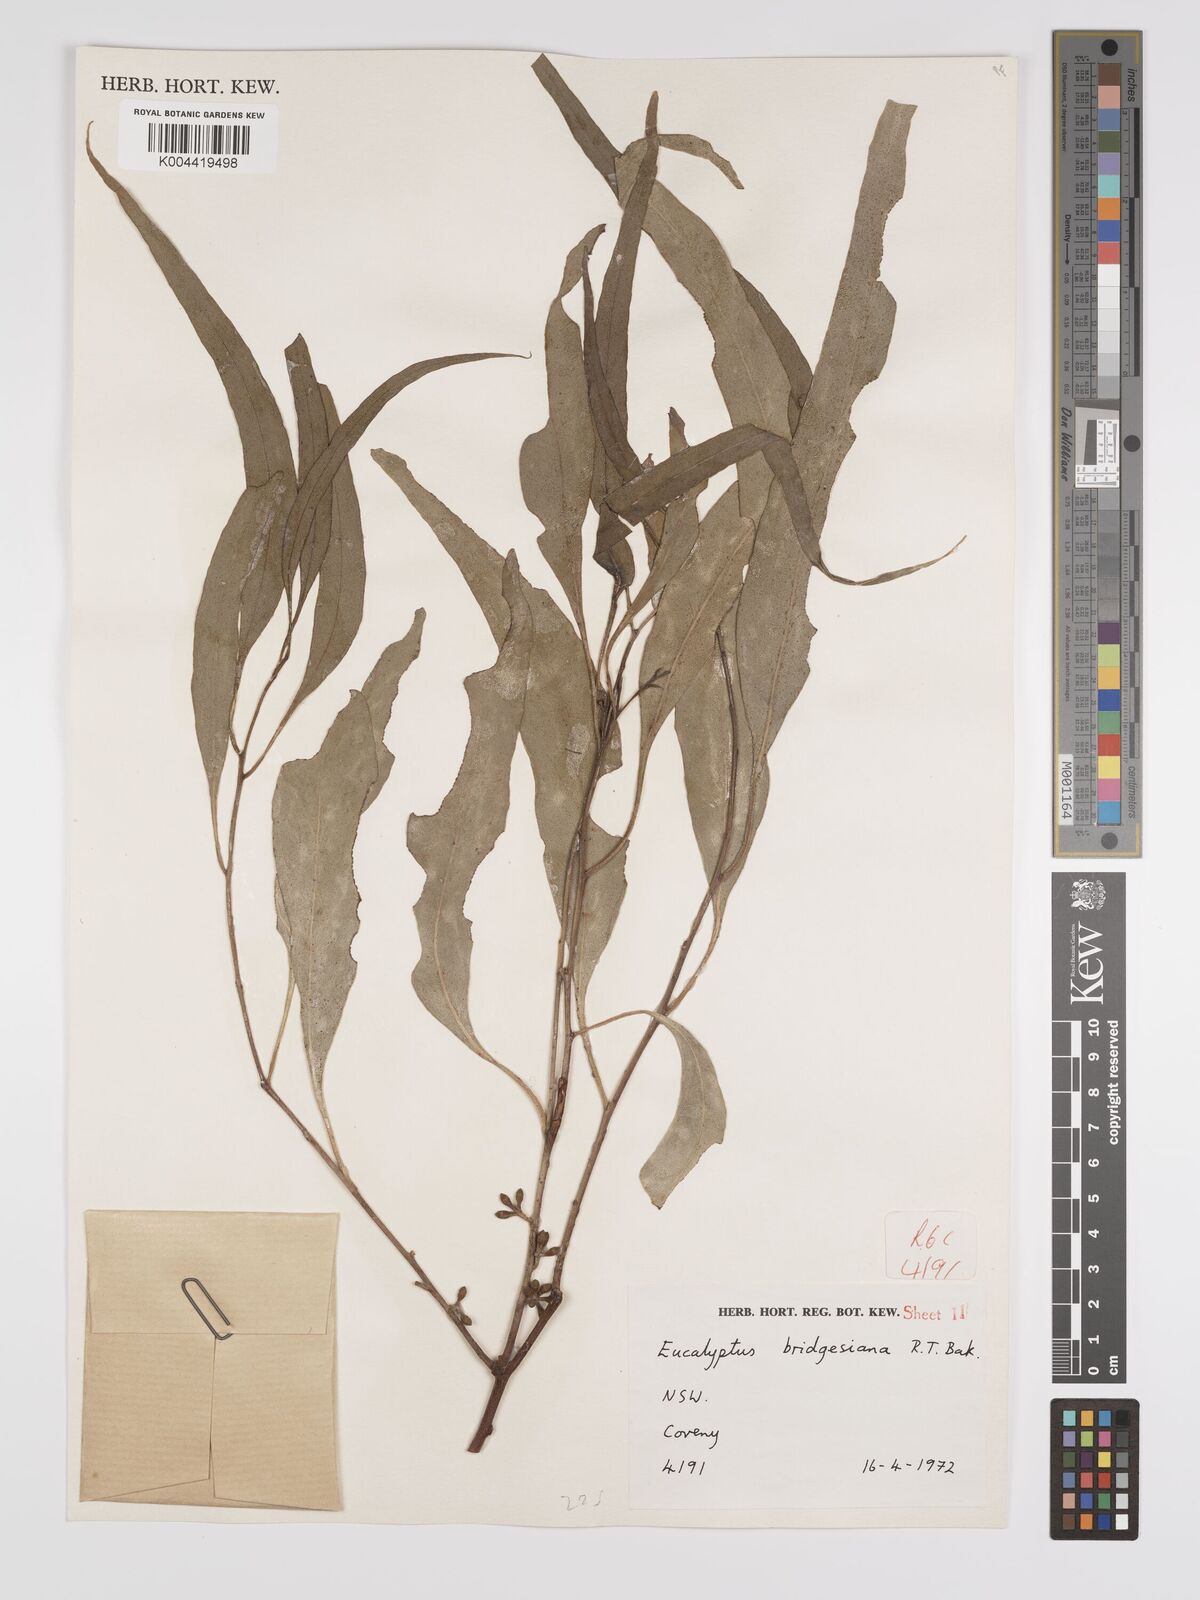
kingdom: Plantae
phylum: Tracheophyta
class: Magnoliopsida
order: Myrtales
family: Myrtaceae
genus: Eucalyptus
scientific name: Eucalyptus bridgesiana
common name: Applebox
